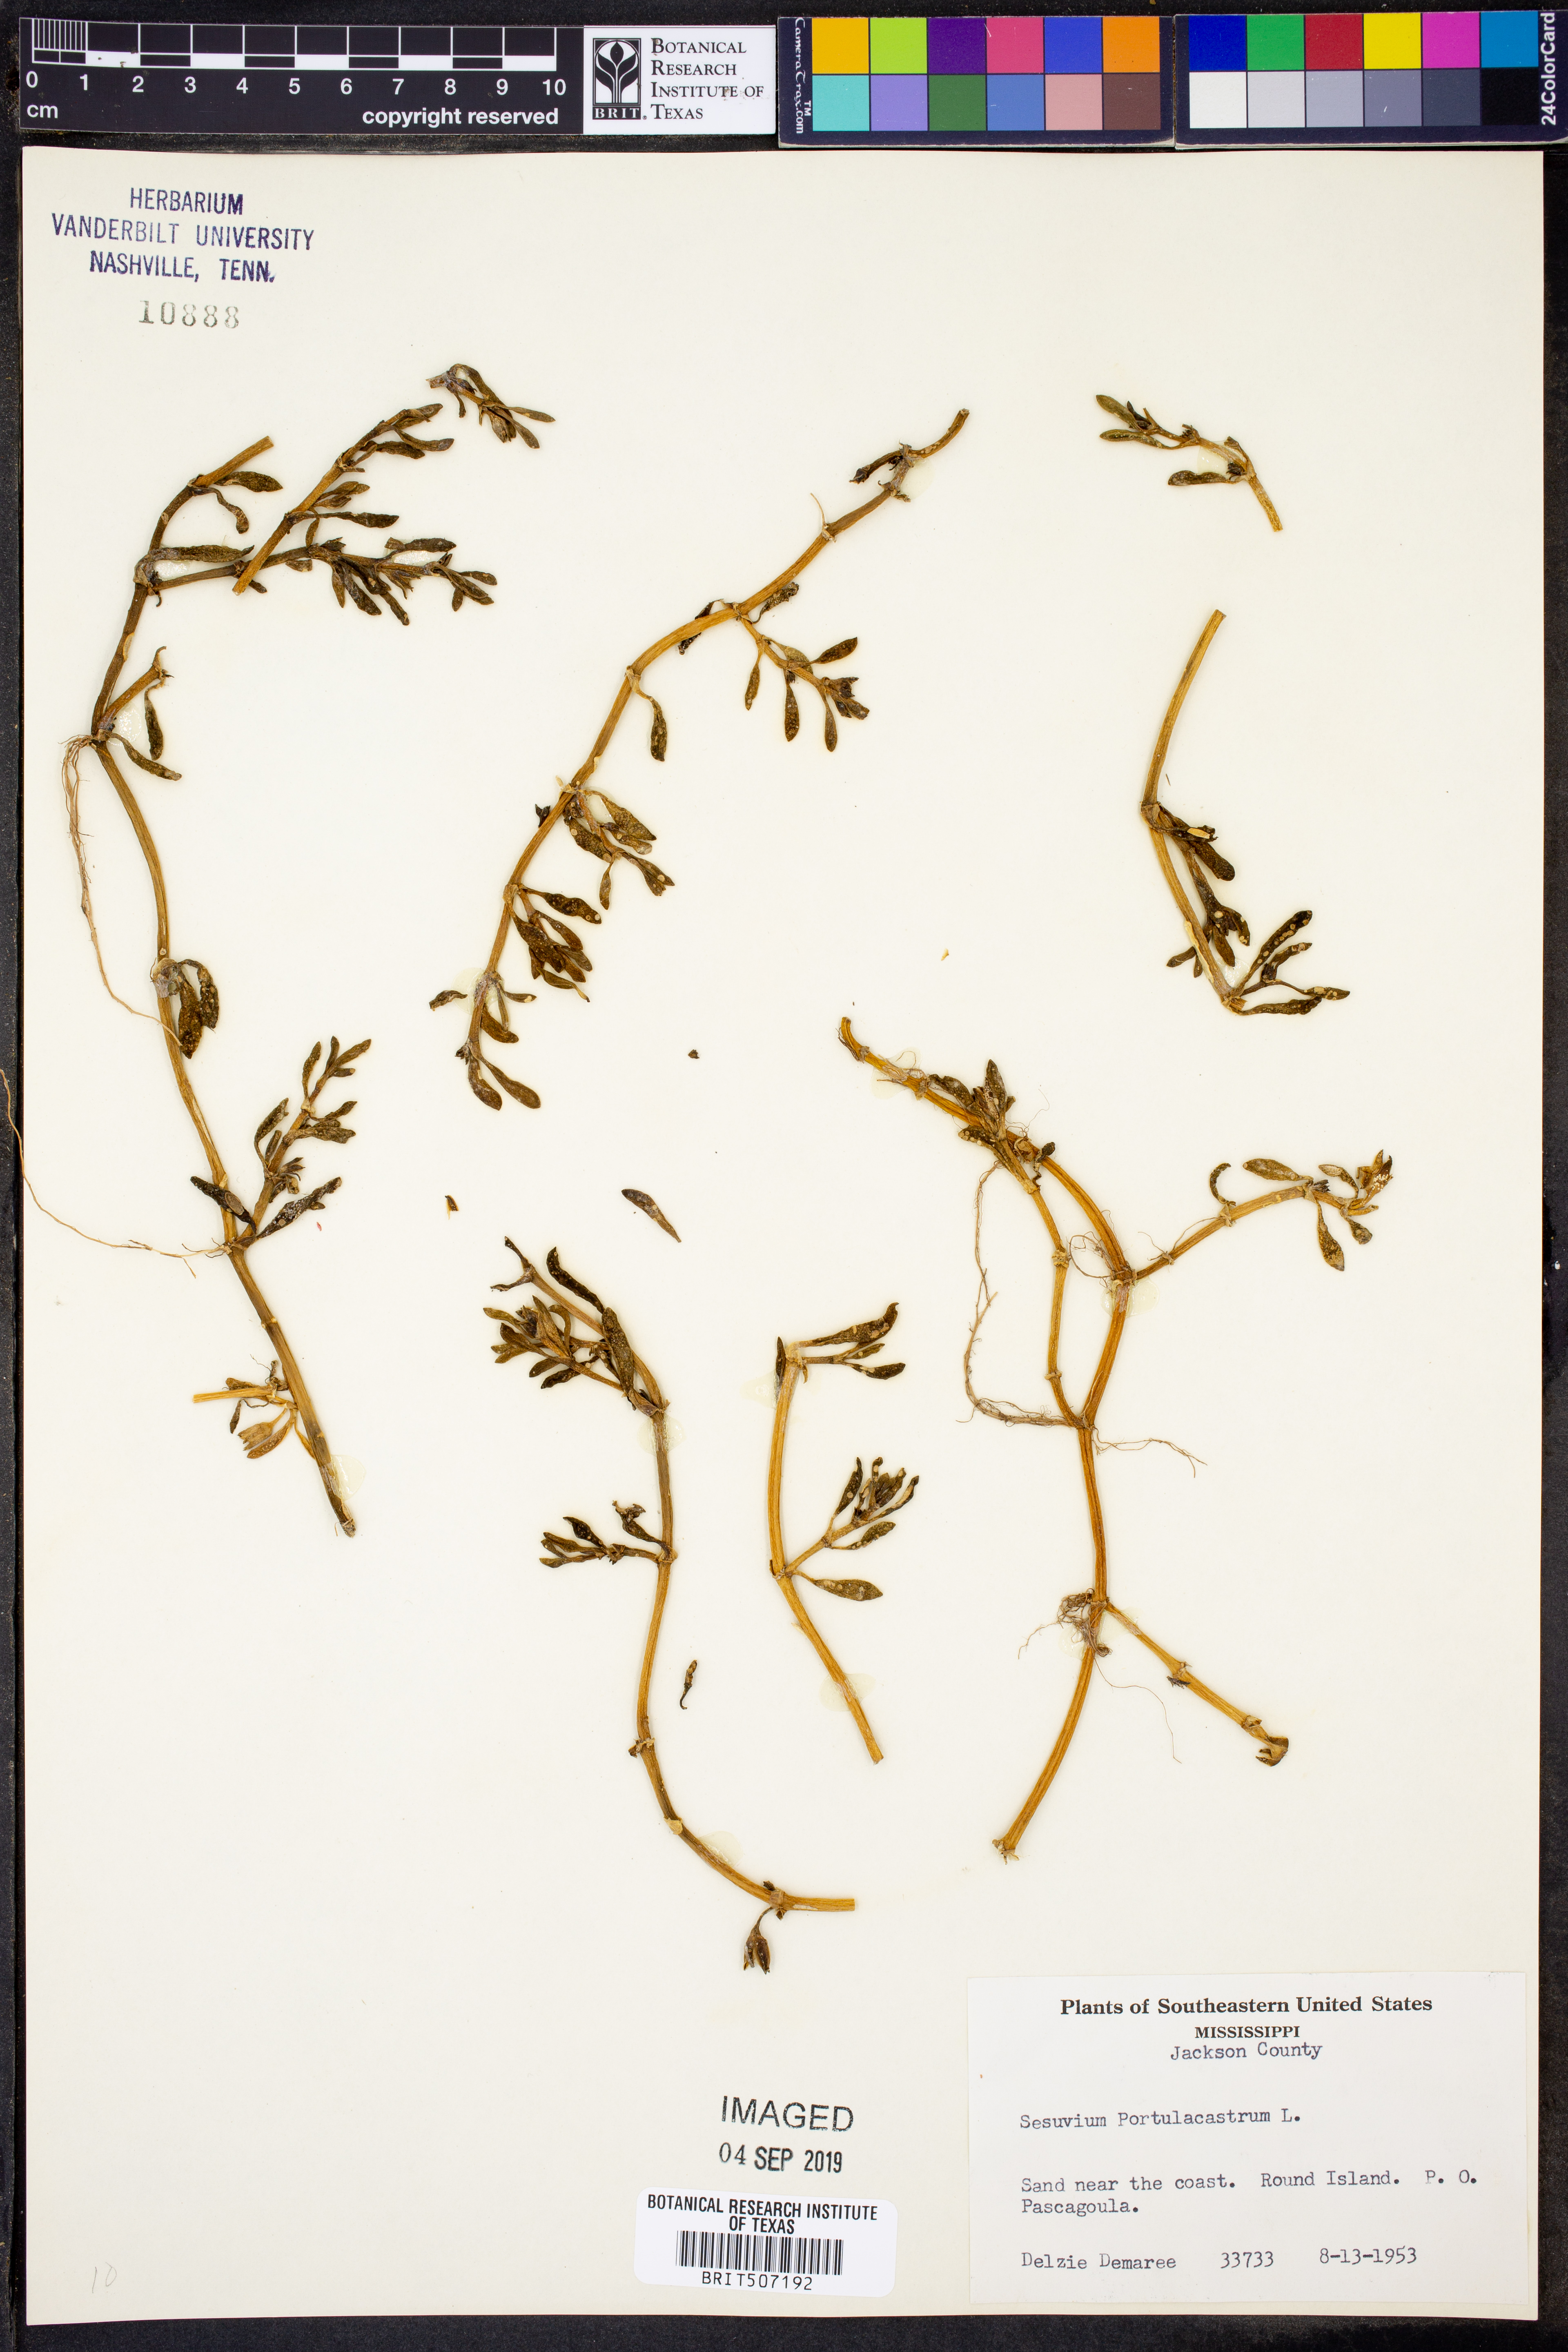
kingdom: Plantae
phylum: Tracheophyta
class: Magnoliopsida
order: Caryophyllales
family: Aizoaceae
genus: Sesuvium
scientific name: Sesuvium portulacastrum
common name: Sea-purslane
